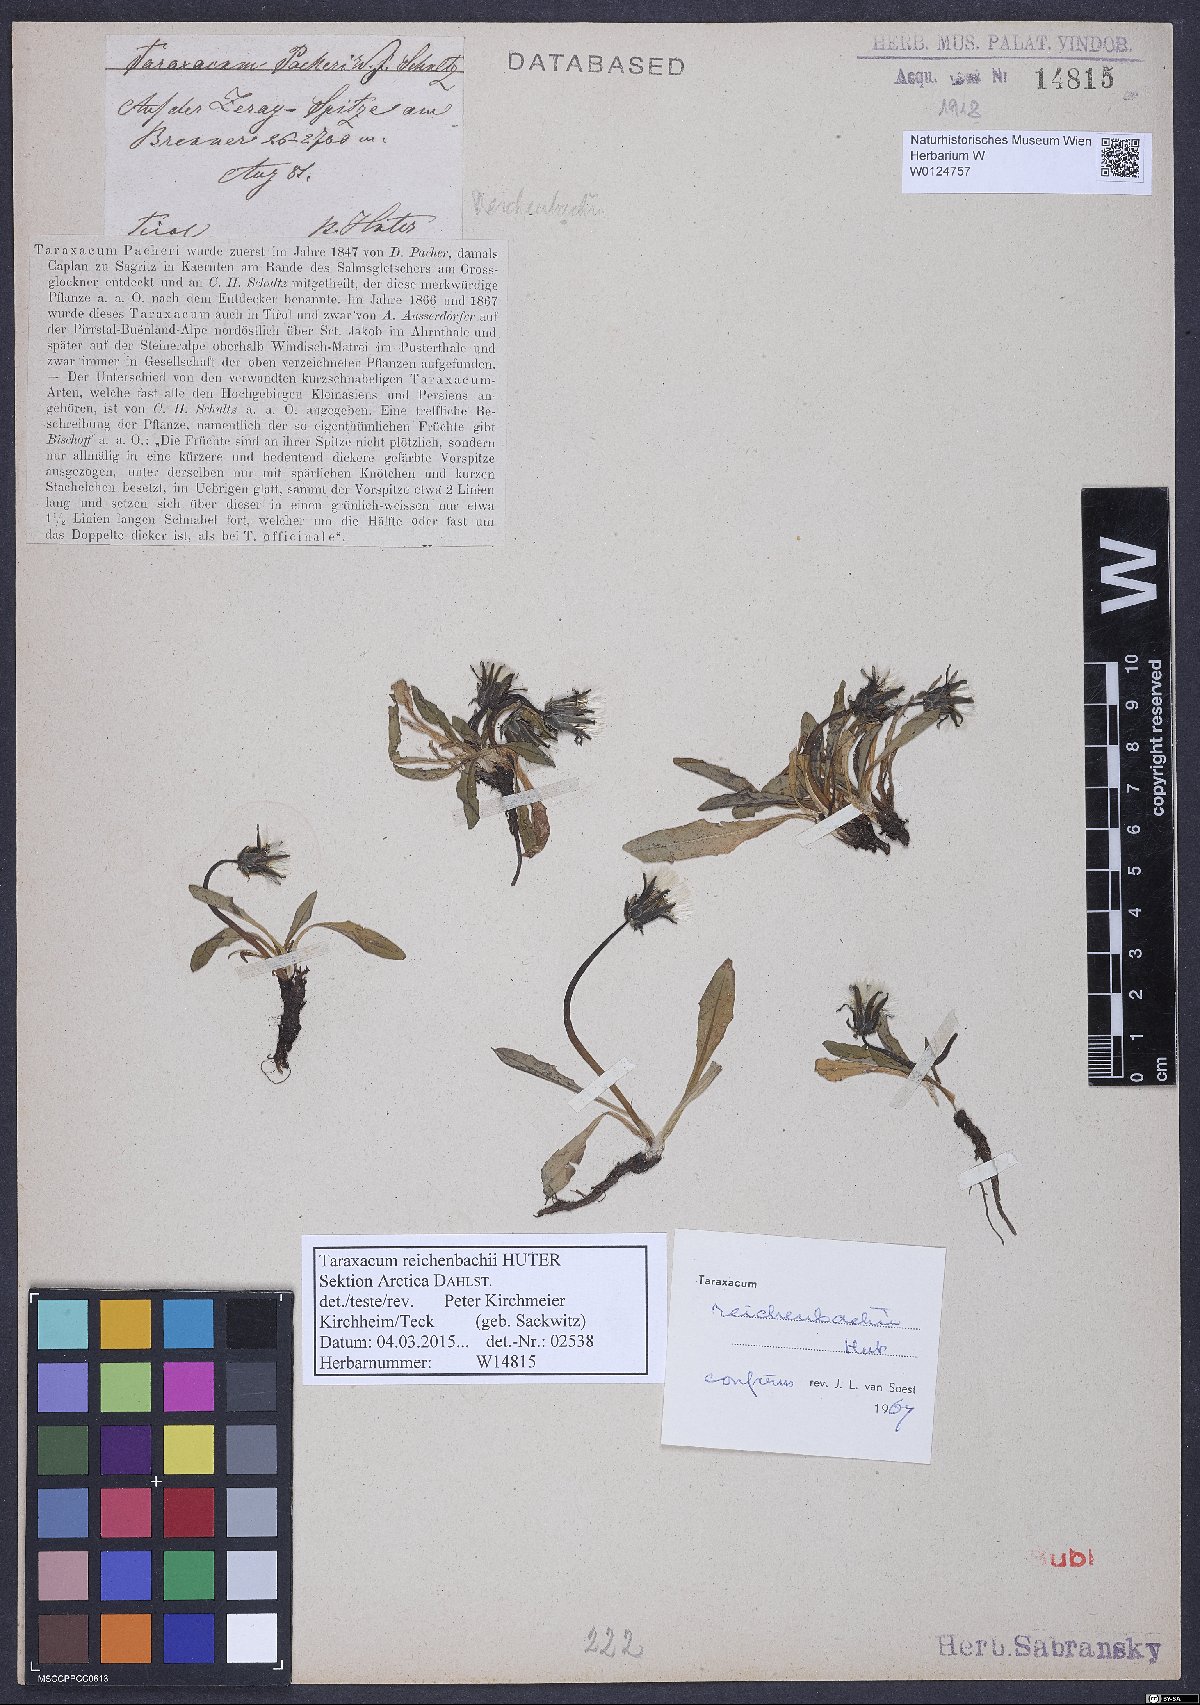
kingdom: Plantae
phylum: Tracheophyta
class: Magnoliopsida
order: Asterales
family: Asteraceae
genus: Taraxacum
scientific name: Taraxacum reichenbachii
